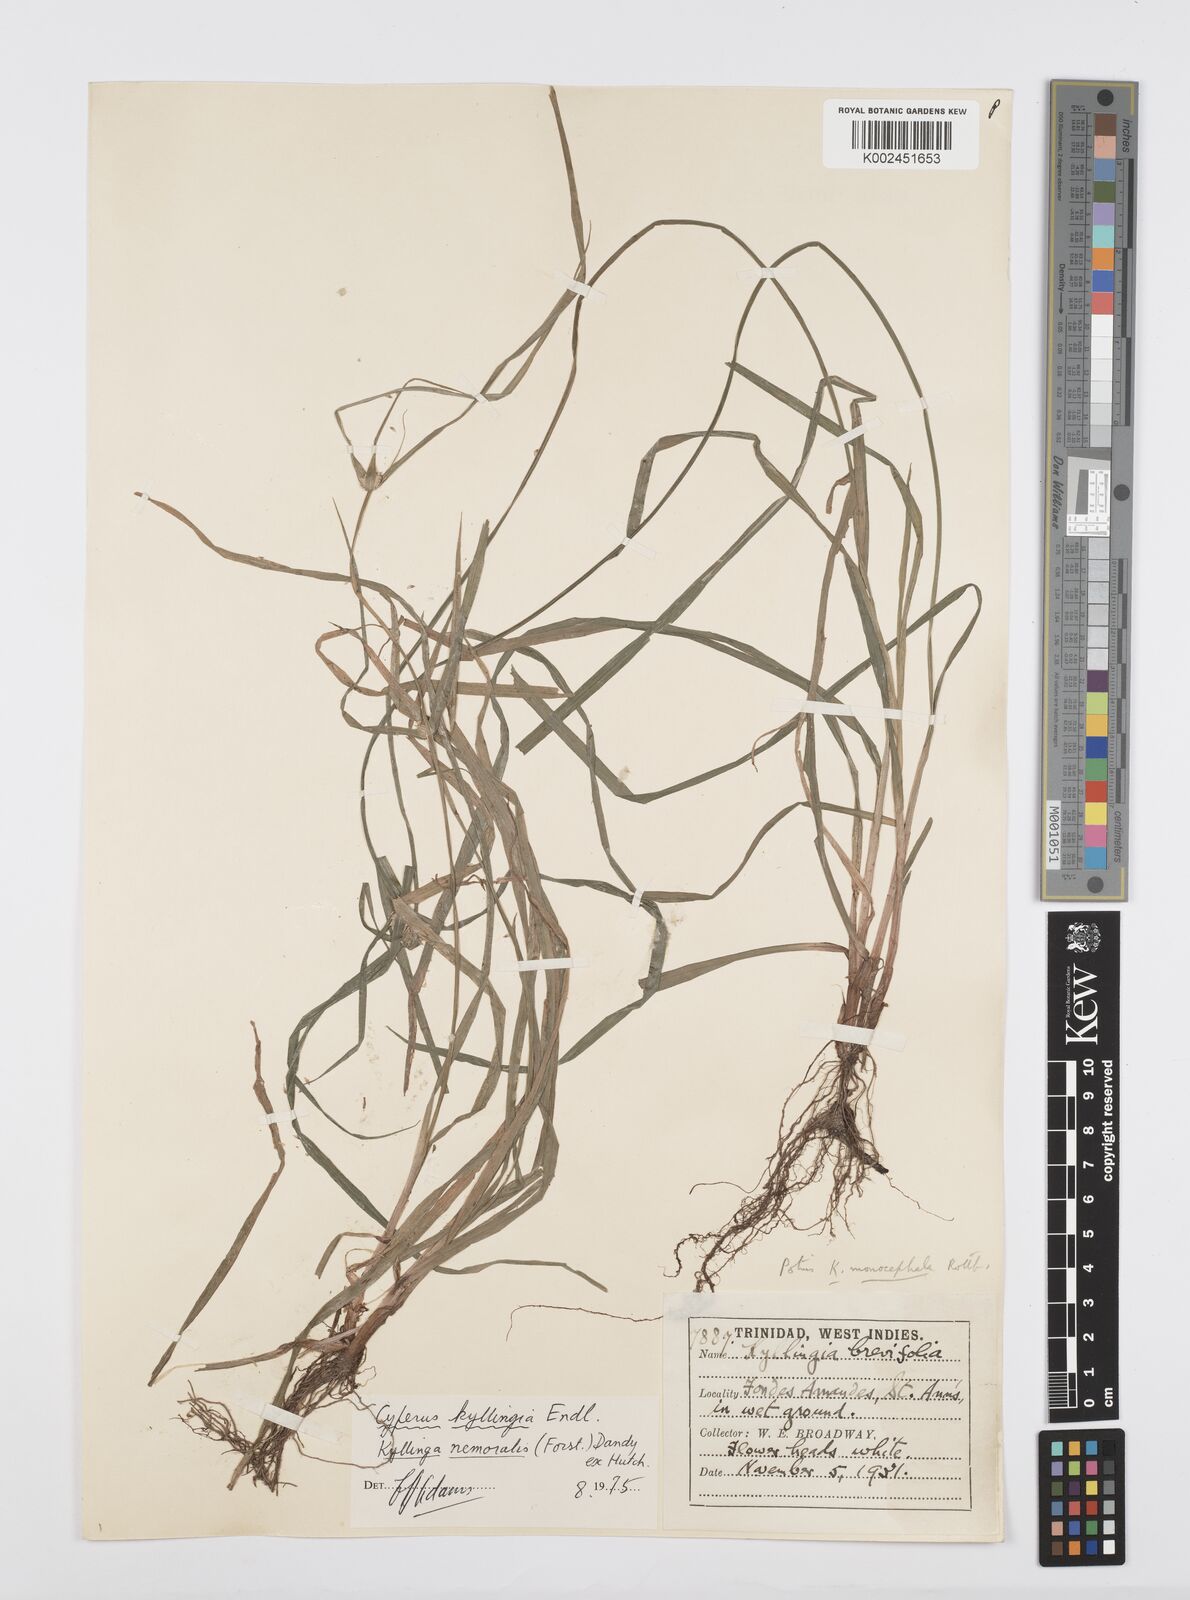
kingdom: Plantae
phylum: Tracheophyta
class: Liliopsida
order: Poales
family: Cyperaceae
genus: Cyperus
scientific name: Cyperus
